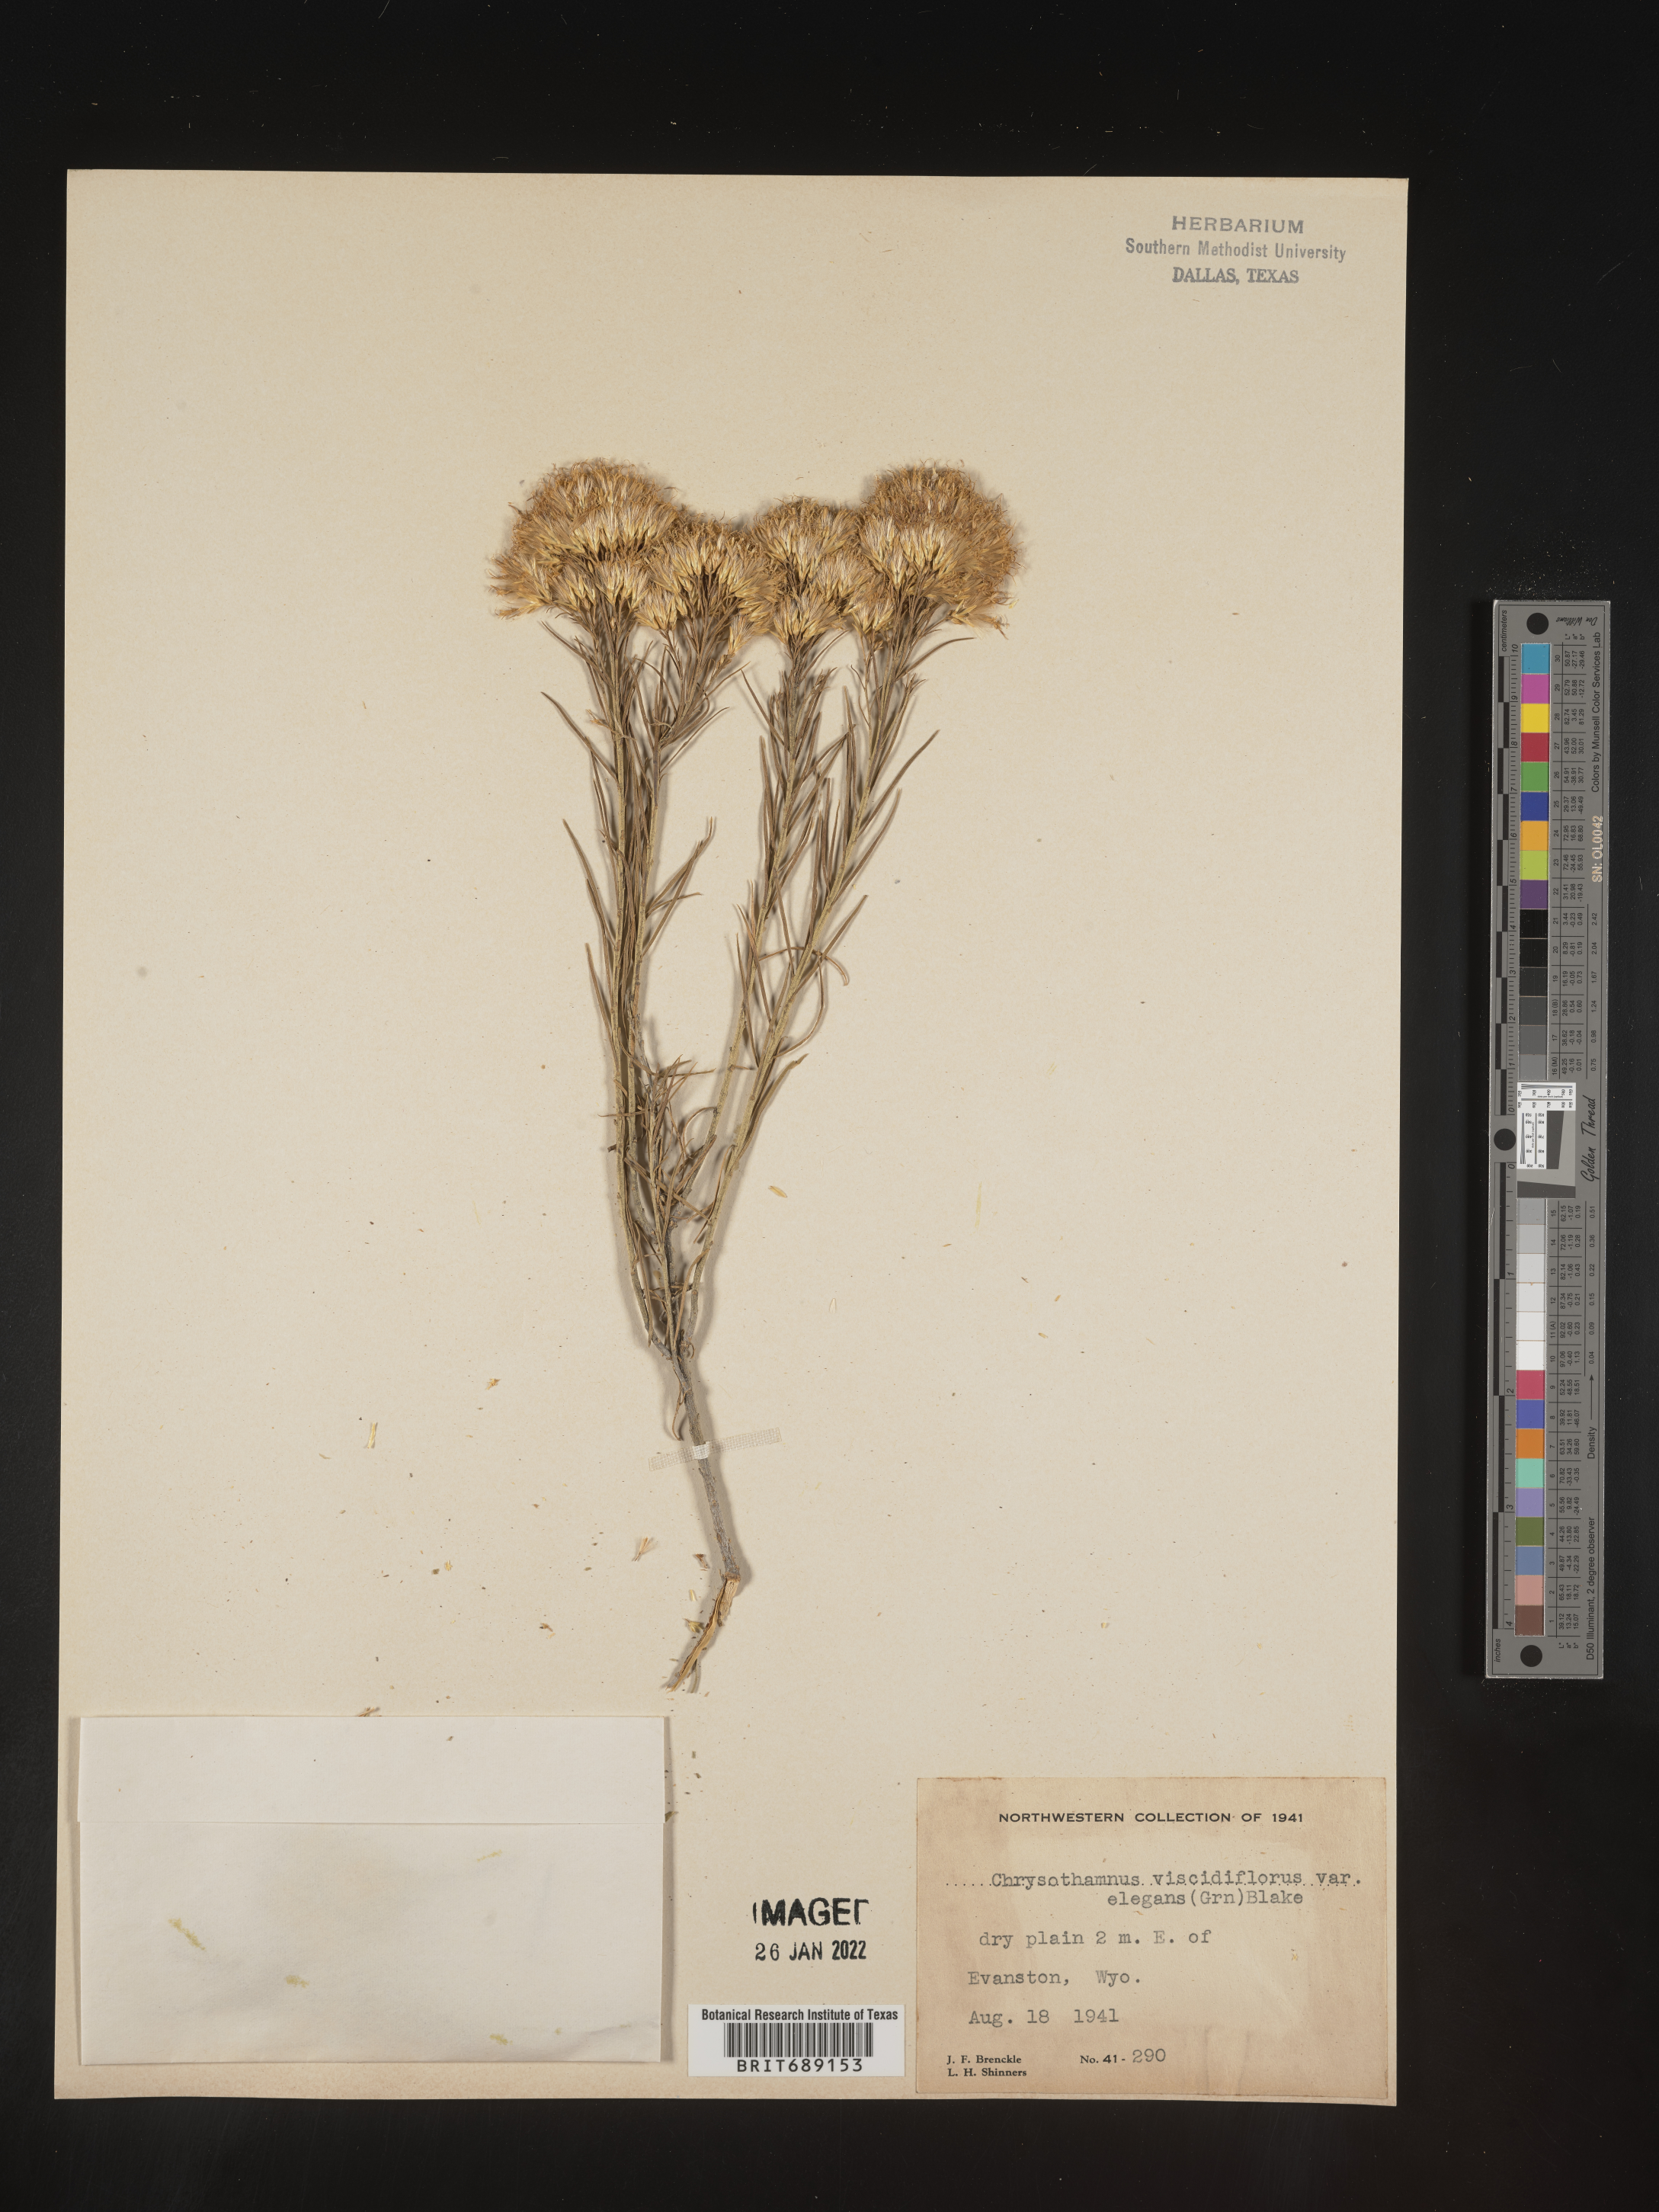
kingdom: Plantae
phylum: Tracheophyta
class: Magnoliopsida
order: Asterales
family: Asteraceae
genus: Chrysothamnus
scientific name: Chrysothamnus viscidiflorus
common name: Yellow rabbitbrush
